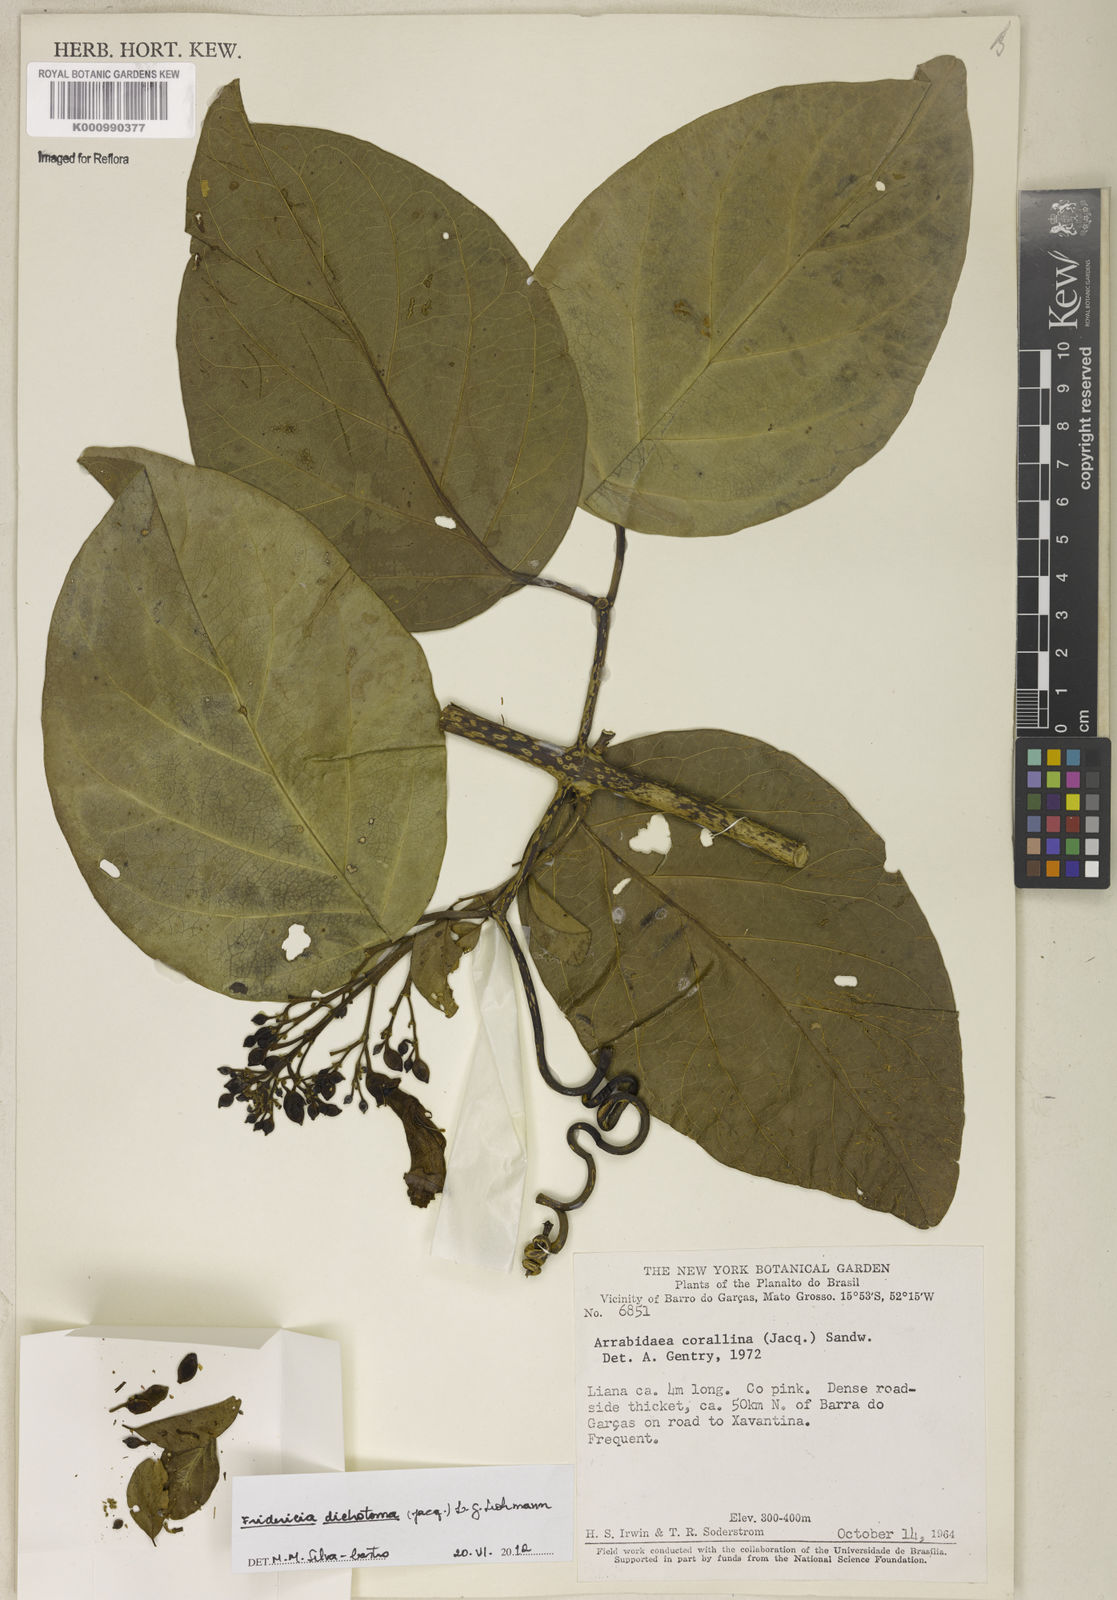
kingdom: Plantae
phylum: Tracheophyta
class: Magnoliopsida
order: Lamiales
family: Bignoniaceae
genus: Tanaecium
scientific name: Tanaecium dichotomum
